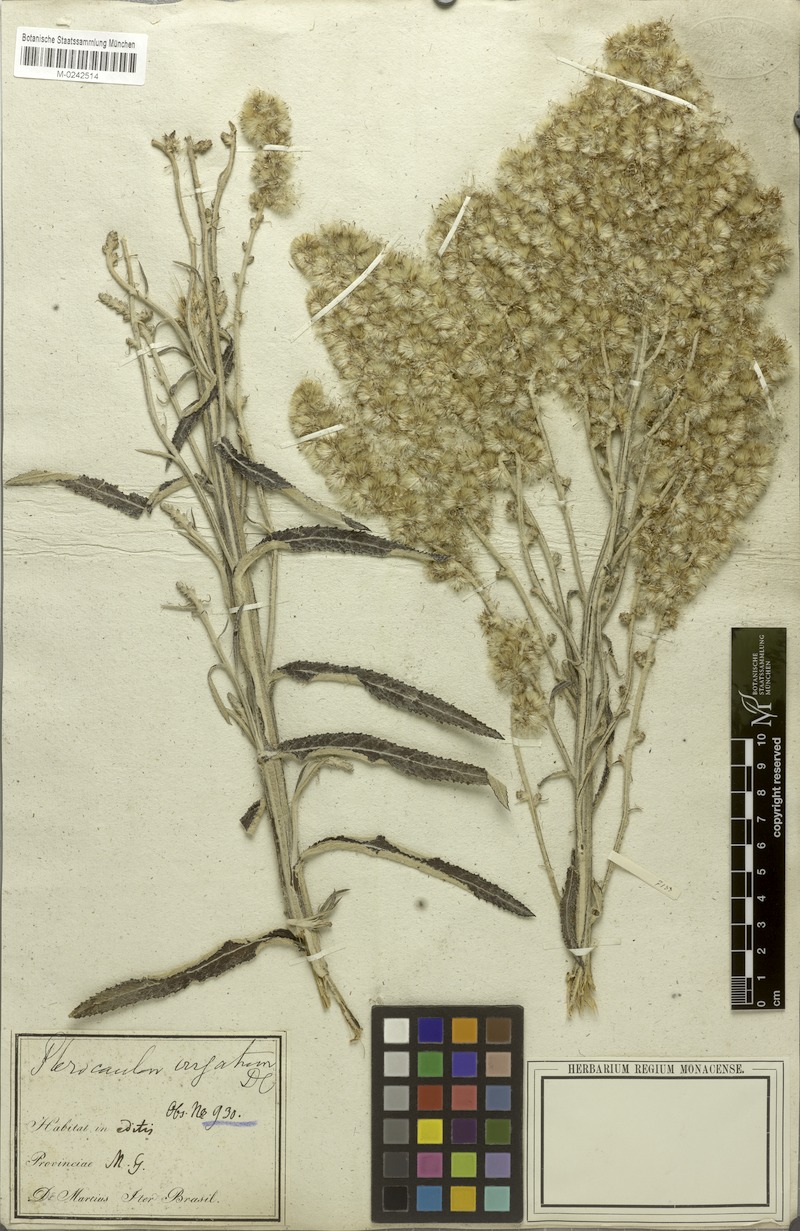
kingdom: Plantae
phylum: Tracheophyta
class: Magnoliopsida
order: Asterales
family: Asteraceae
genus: Pterocaulon
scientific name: Pterocaulon virgatum
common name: Wand blackroot
